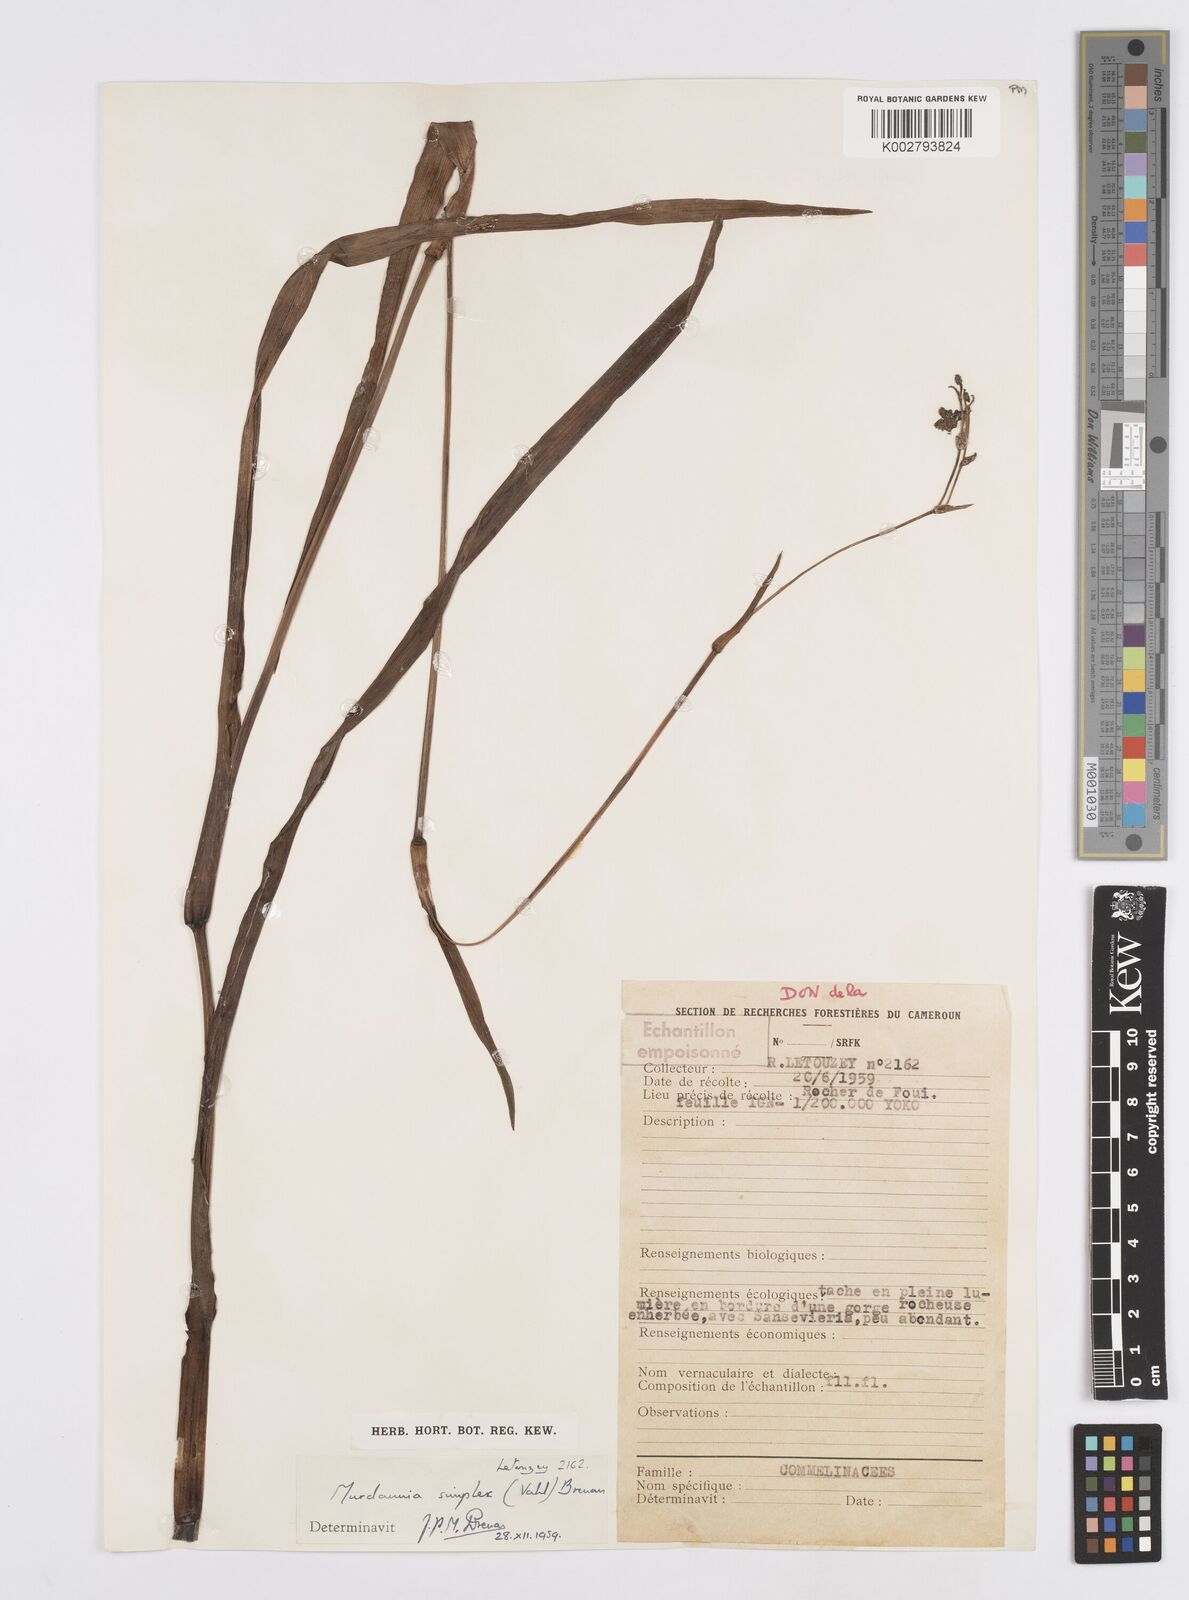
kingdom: Plantae
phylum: Tracheophyta
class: Liliopsida
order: Commelinales
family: Commelinaceae
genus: Murdannia
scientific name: Murdannia simplex
